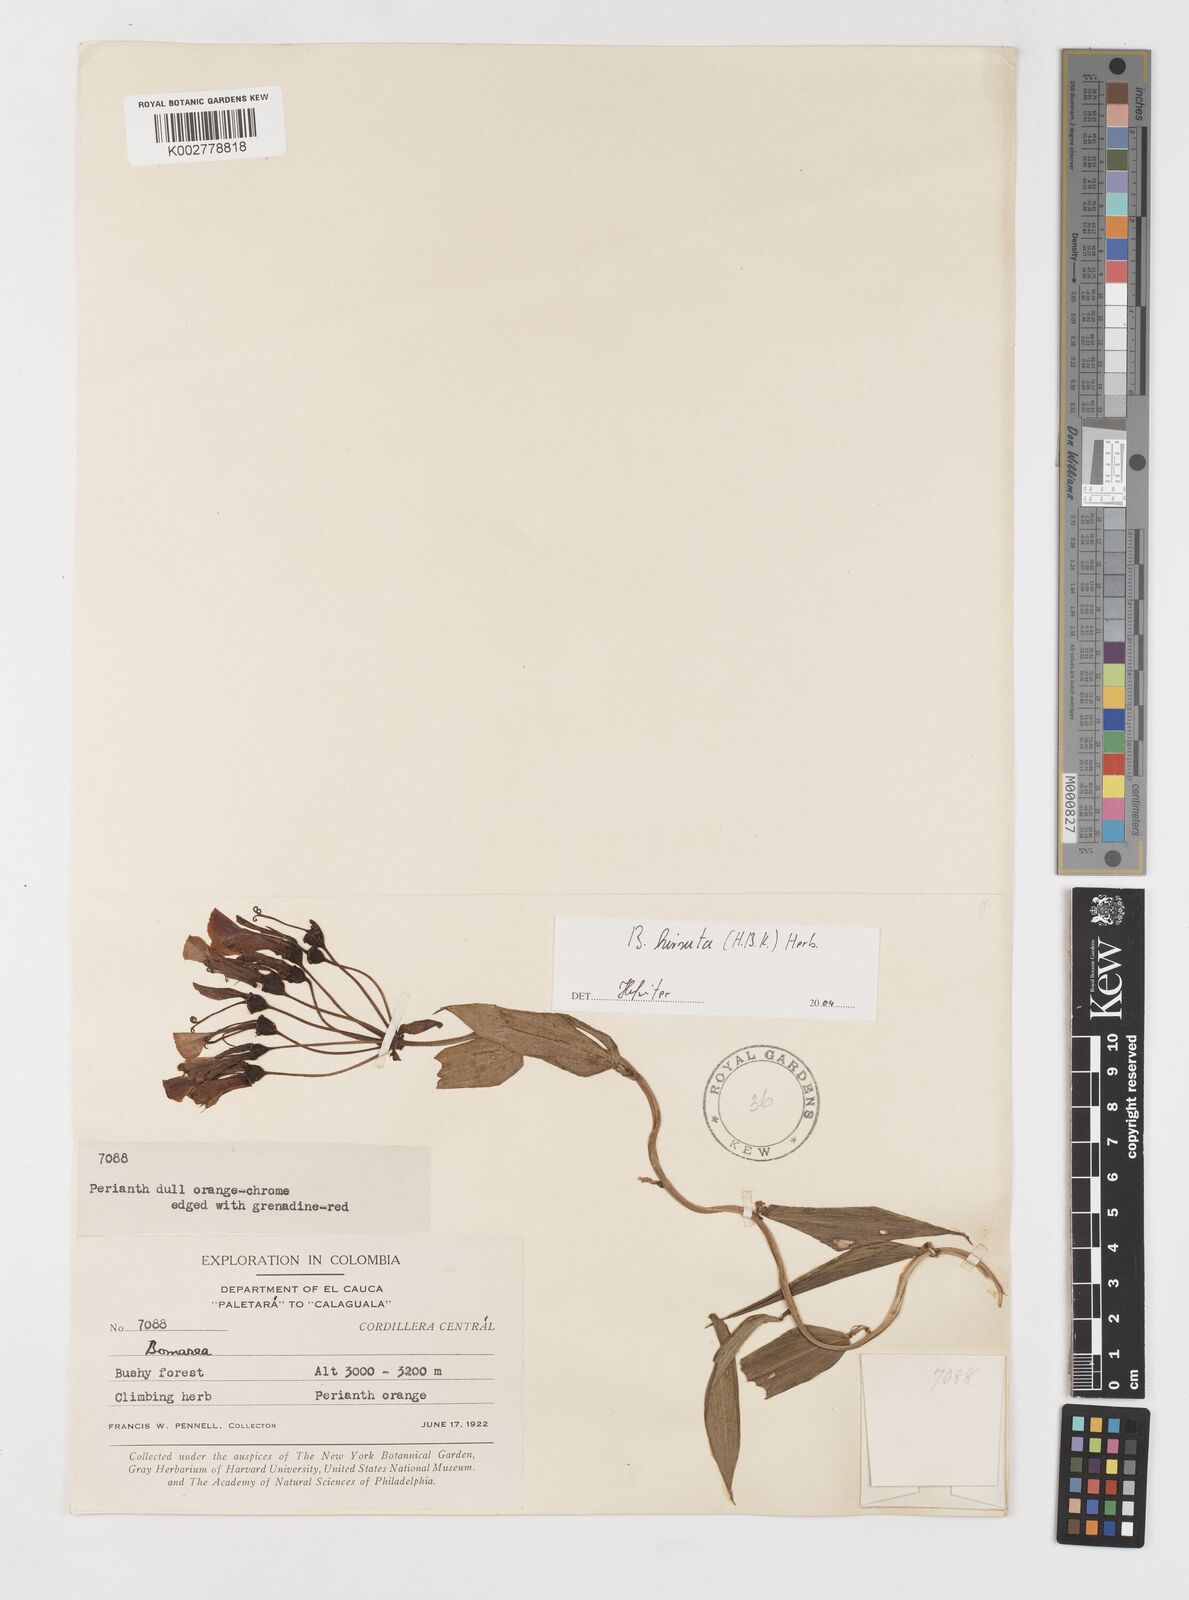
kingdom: Plantae
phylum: Tracheophyta
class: Liliopsida
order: Liliales
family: Alstroemeriaceae
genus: Bomarea
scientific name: Bomarea hirsuta
